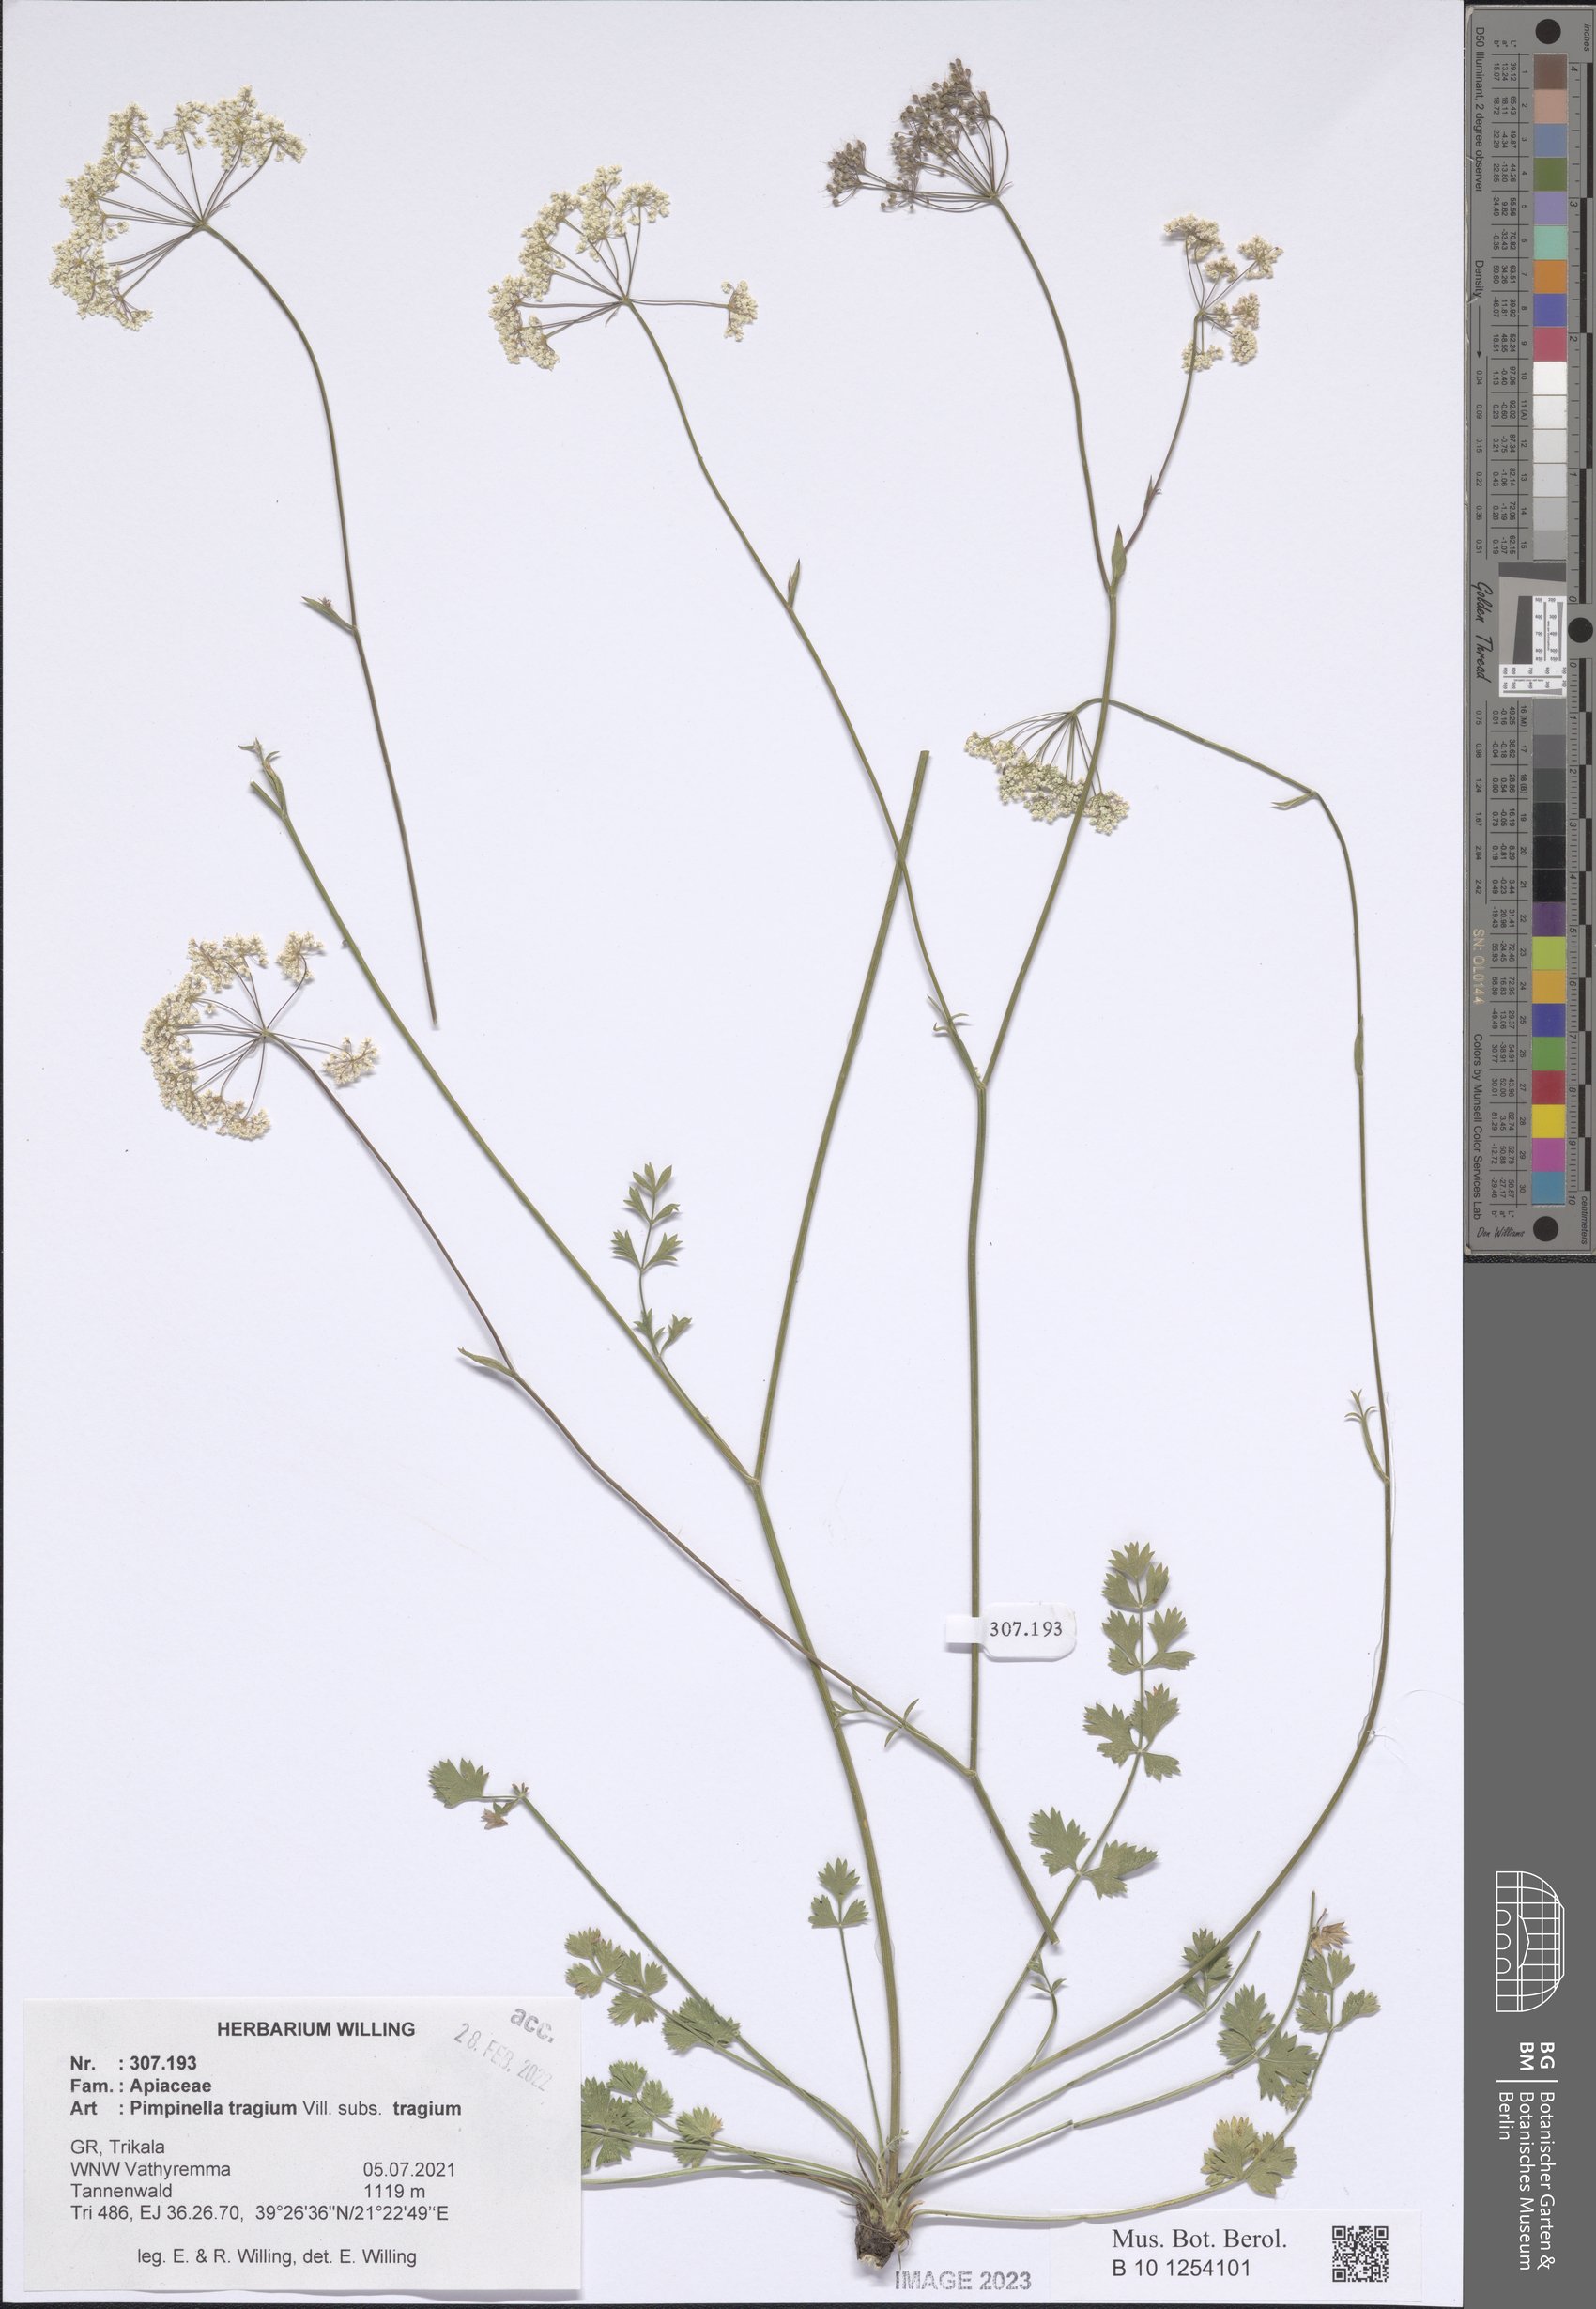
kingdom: Plantae
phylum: Tracheophyta
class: Magnoliopsida
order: Apiales
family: Apiaceae
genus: Pimpinella
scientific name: Pimpinella tragium
